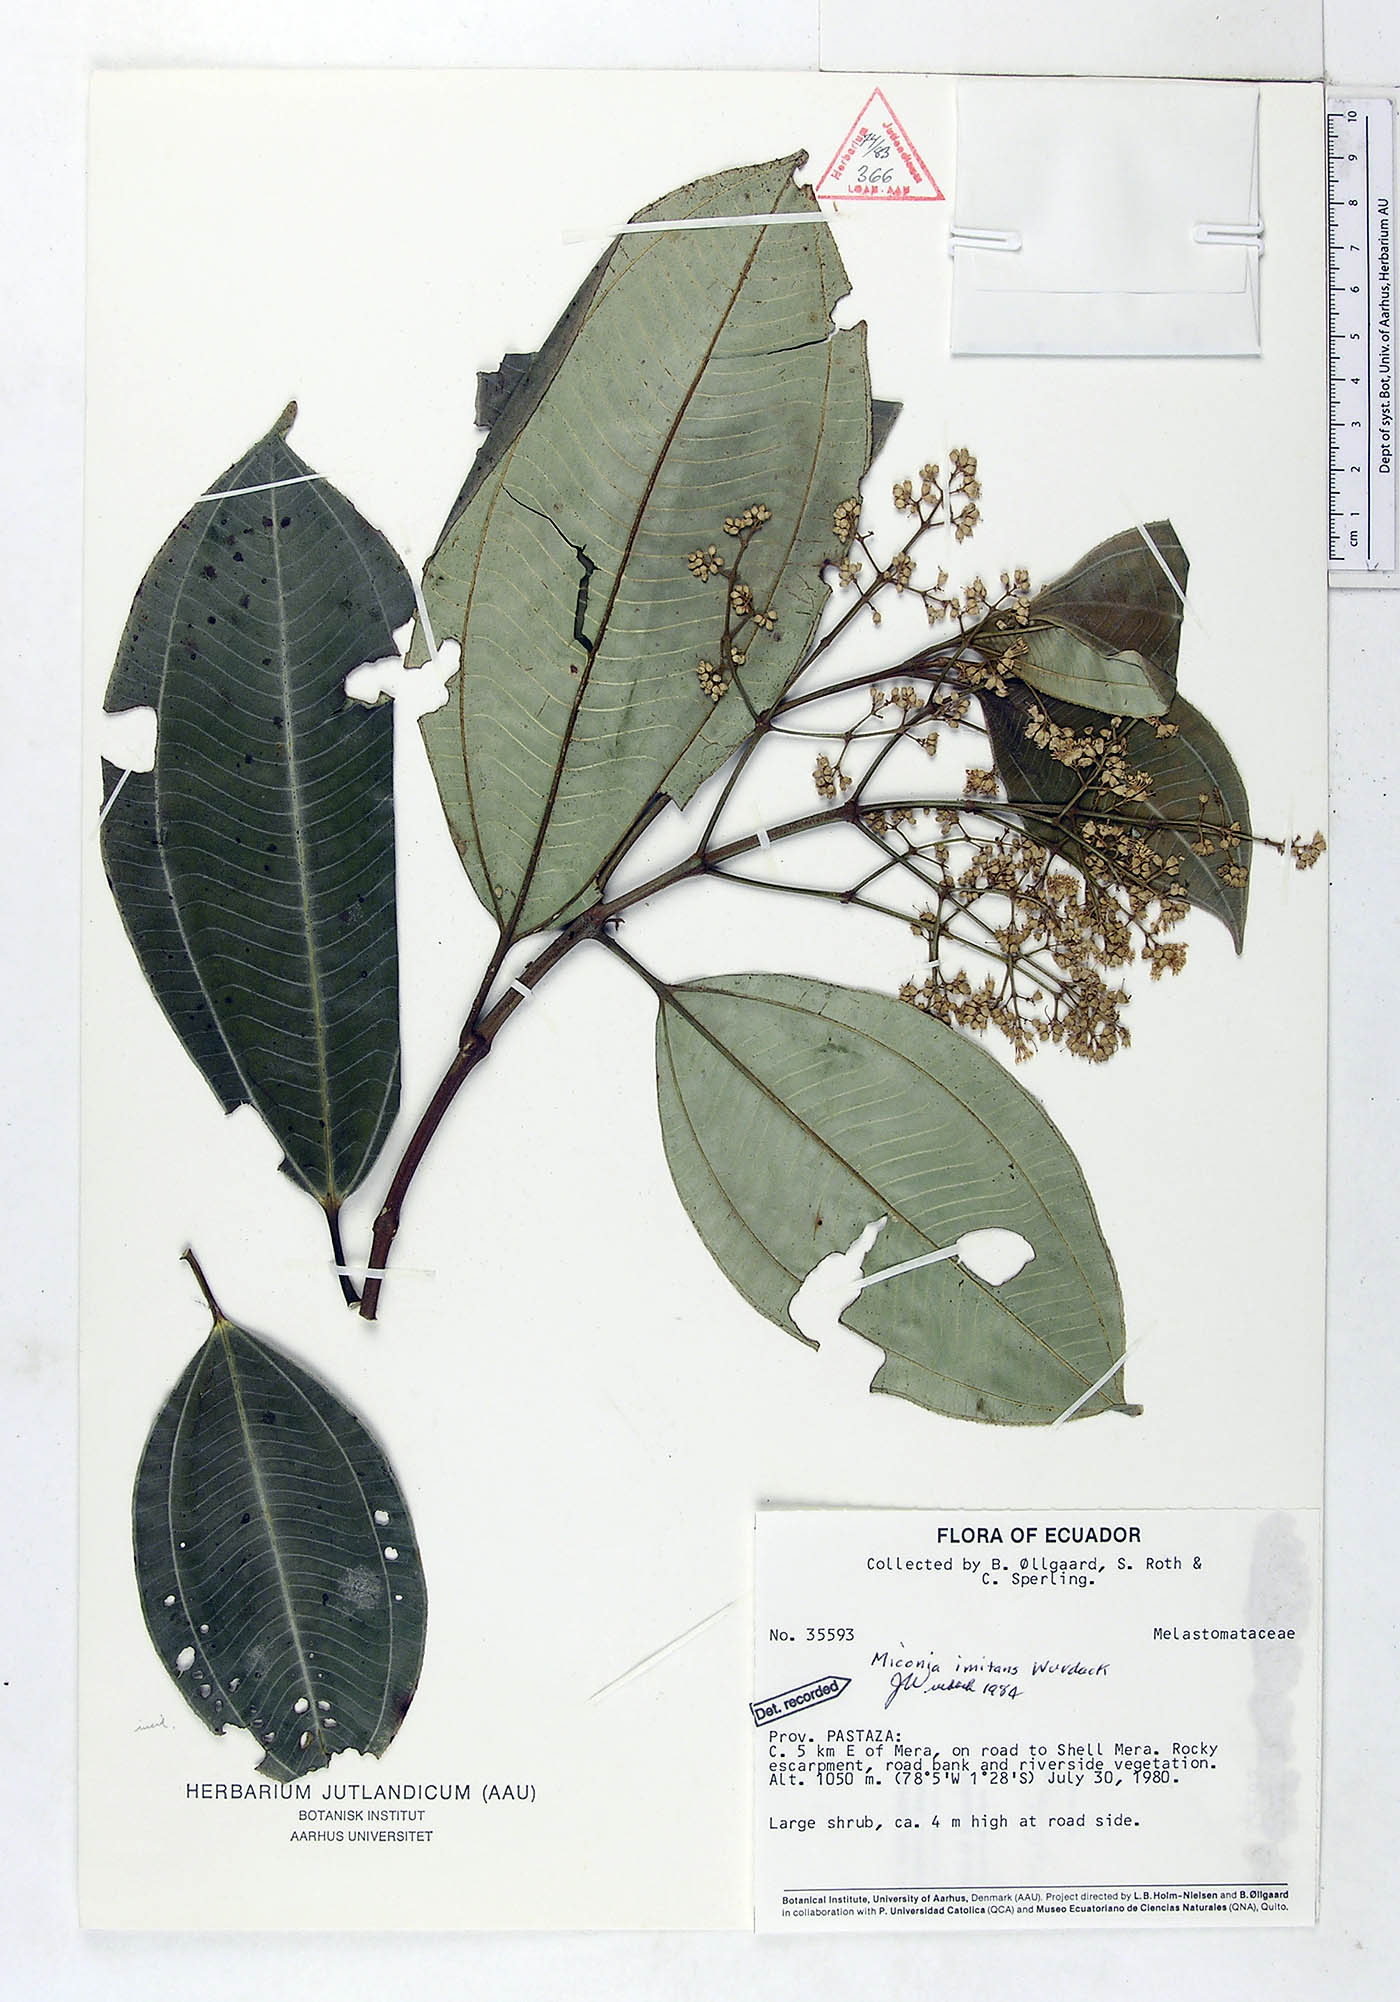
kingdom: Plantae
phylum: Tracheophyta
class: Magnoliopsida
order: Myrtales
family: Melastomataceae
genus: Miconia
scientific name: Miconia imitans
